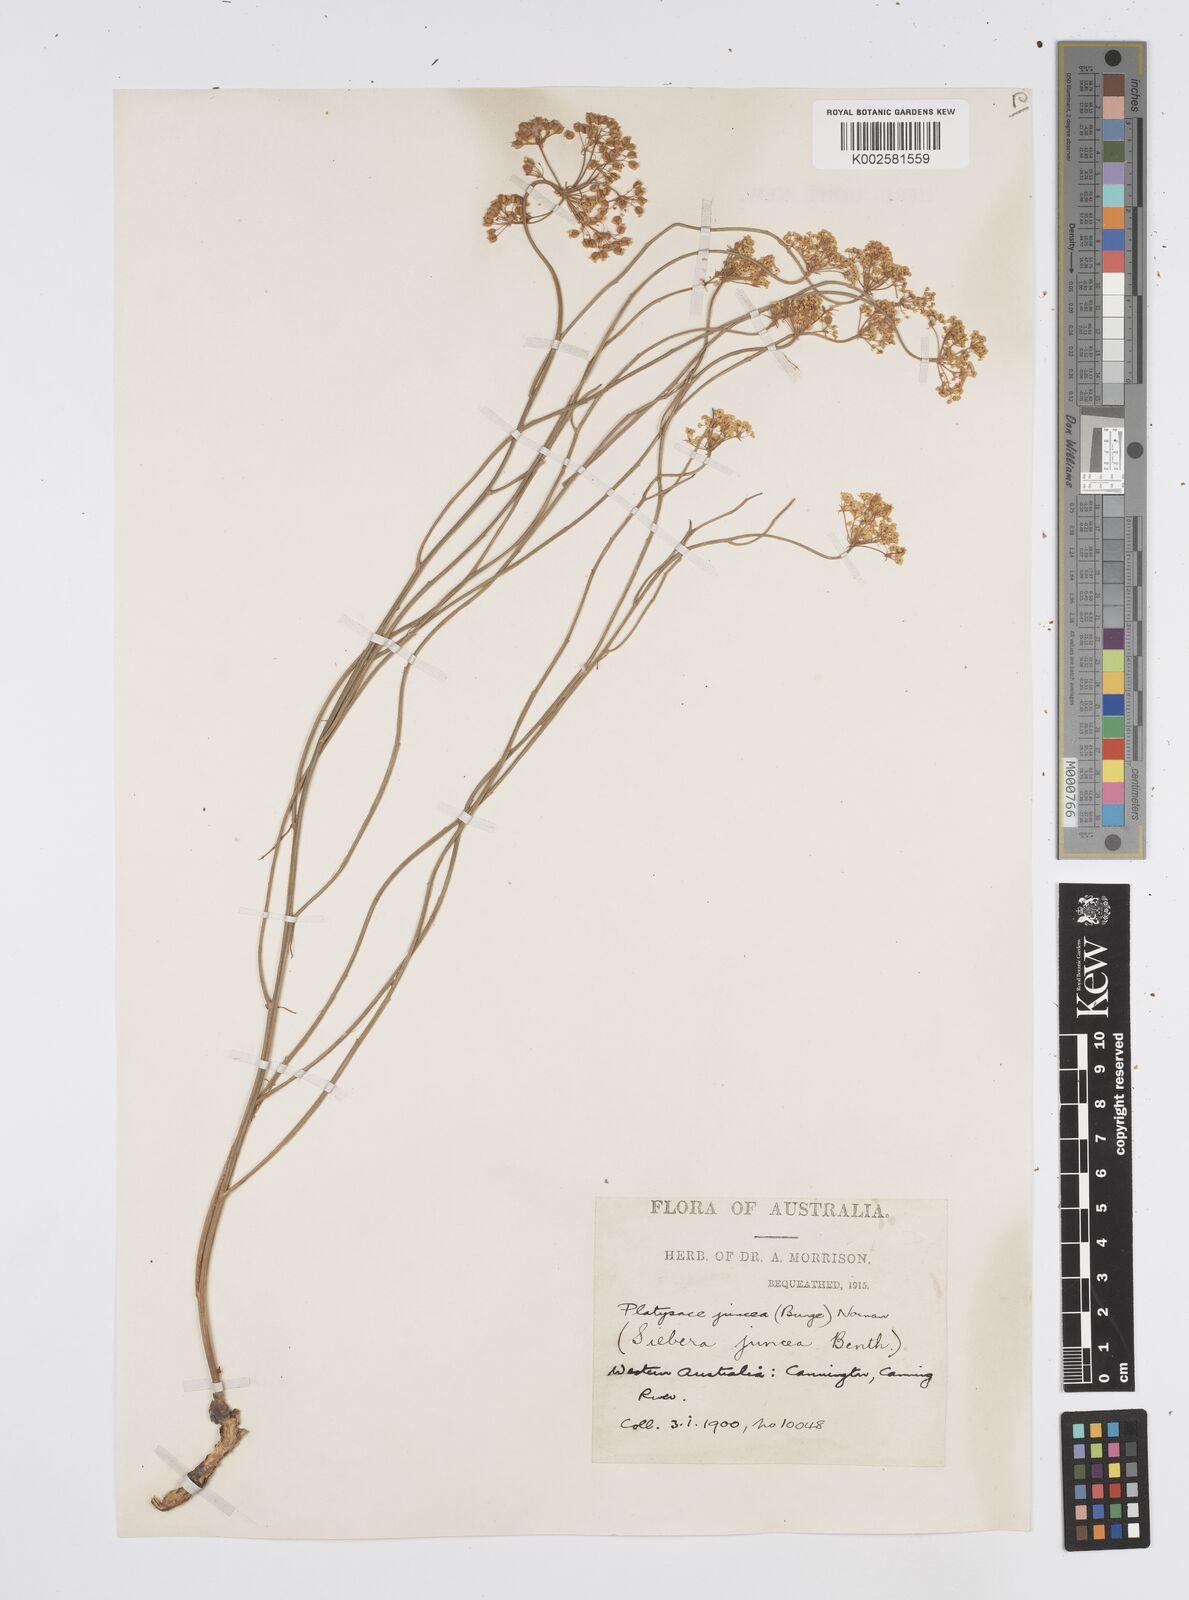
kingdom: Plantae
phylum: Tracheophyta
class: Magnoliopsida
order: Apiales
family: Apiaceae
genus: Platysace
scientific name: Platysace juncea
